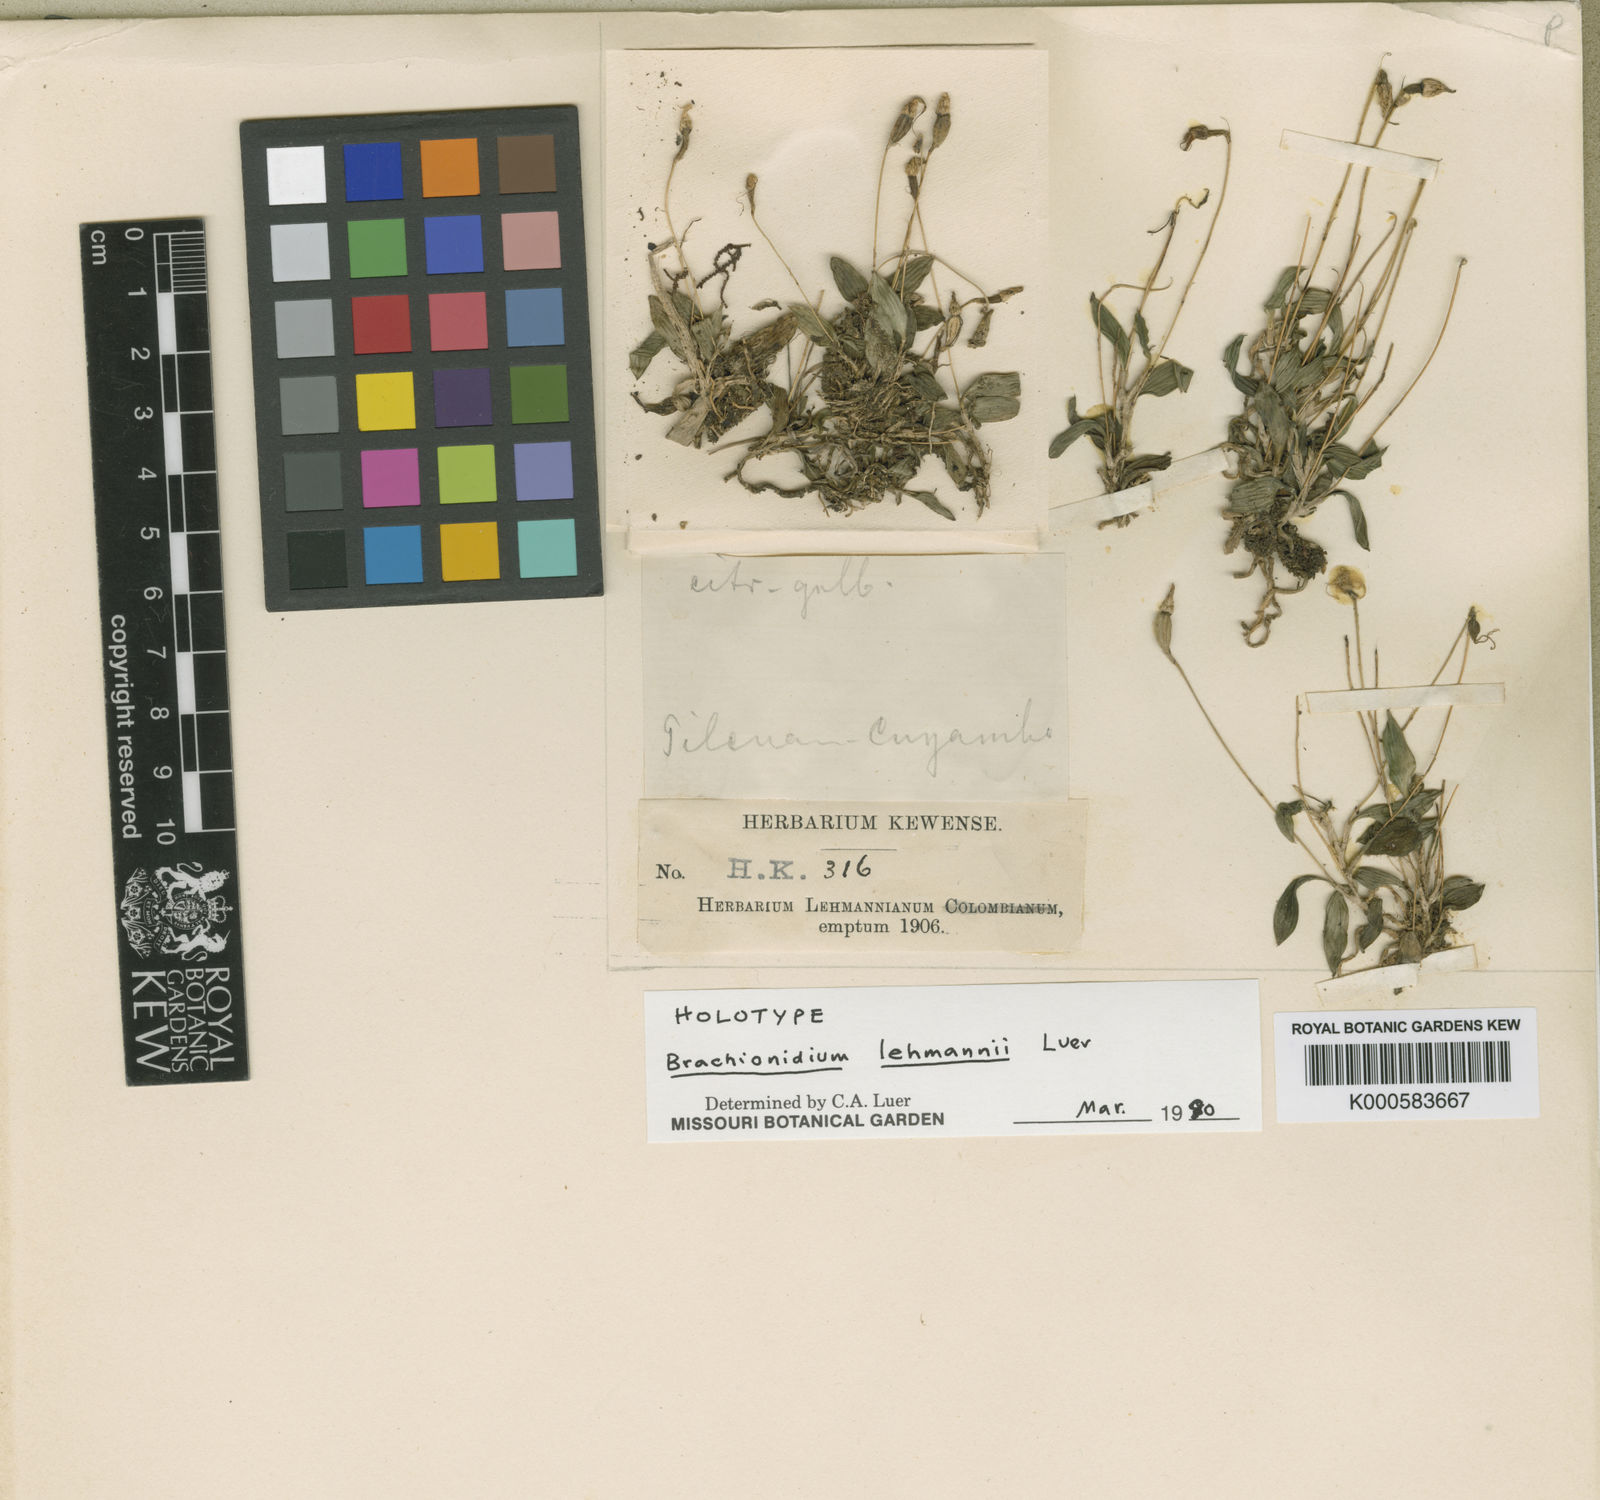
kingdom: Plantae
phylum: Tracheophyta
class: Liliopsida
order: Asparagales
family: Orchidaceae
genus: Brachionidium
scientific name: Brachionidium lehmannii
